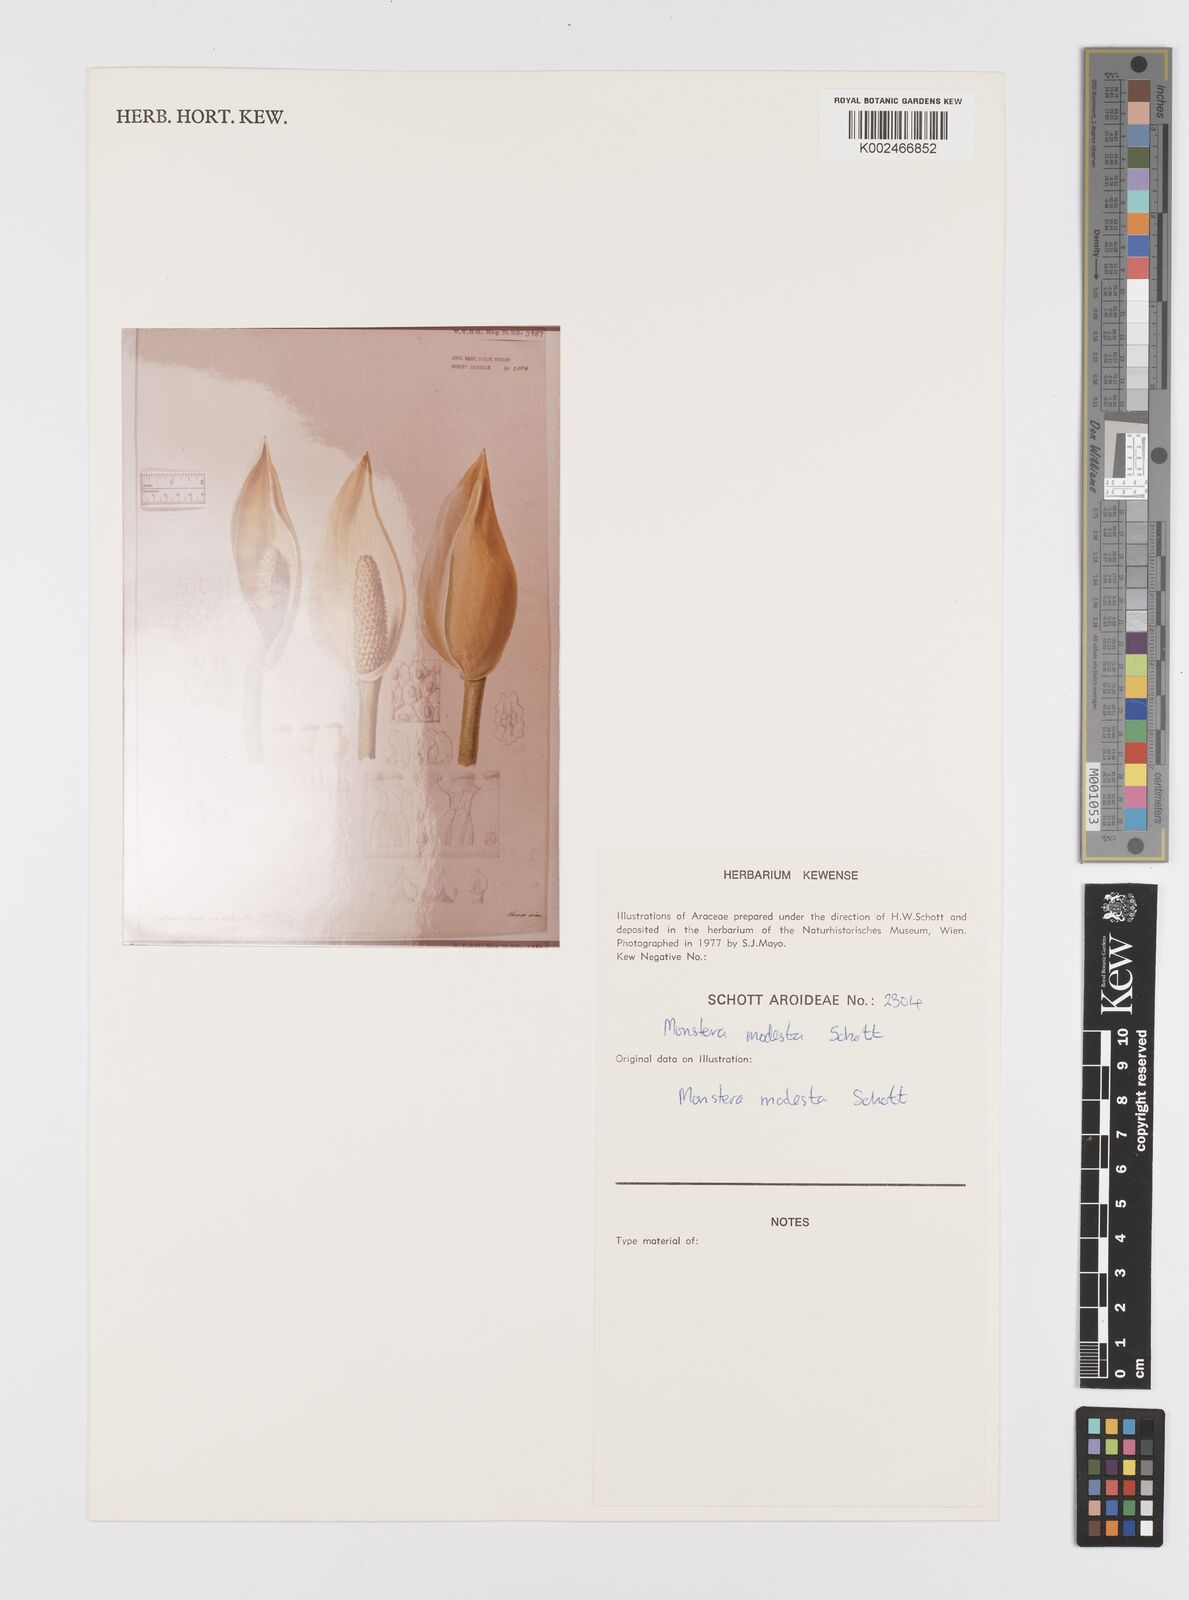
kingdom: Plantae
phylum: Tracheophyta
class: Liliopsida
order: Alismatales
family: Araceae
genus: Monstera
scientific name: Monstera adansonii
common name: Tarovine
